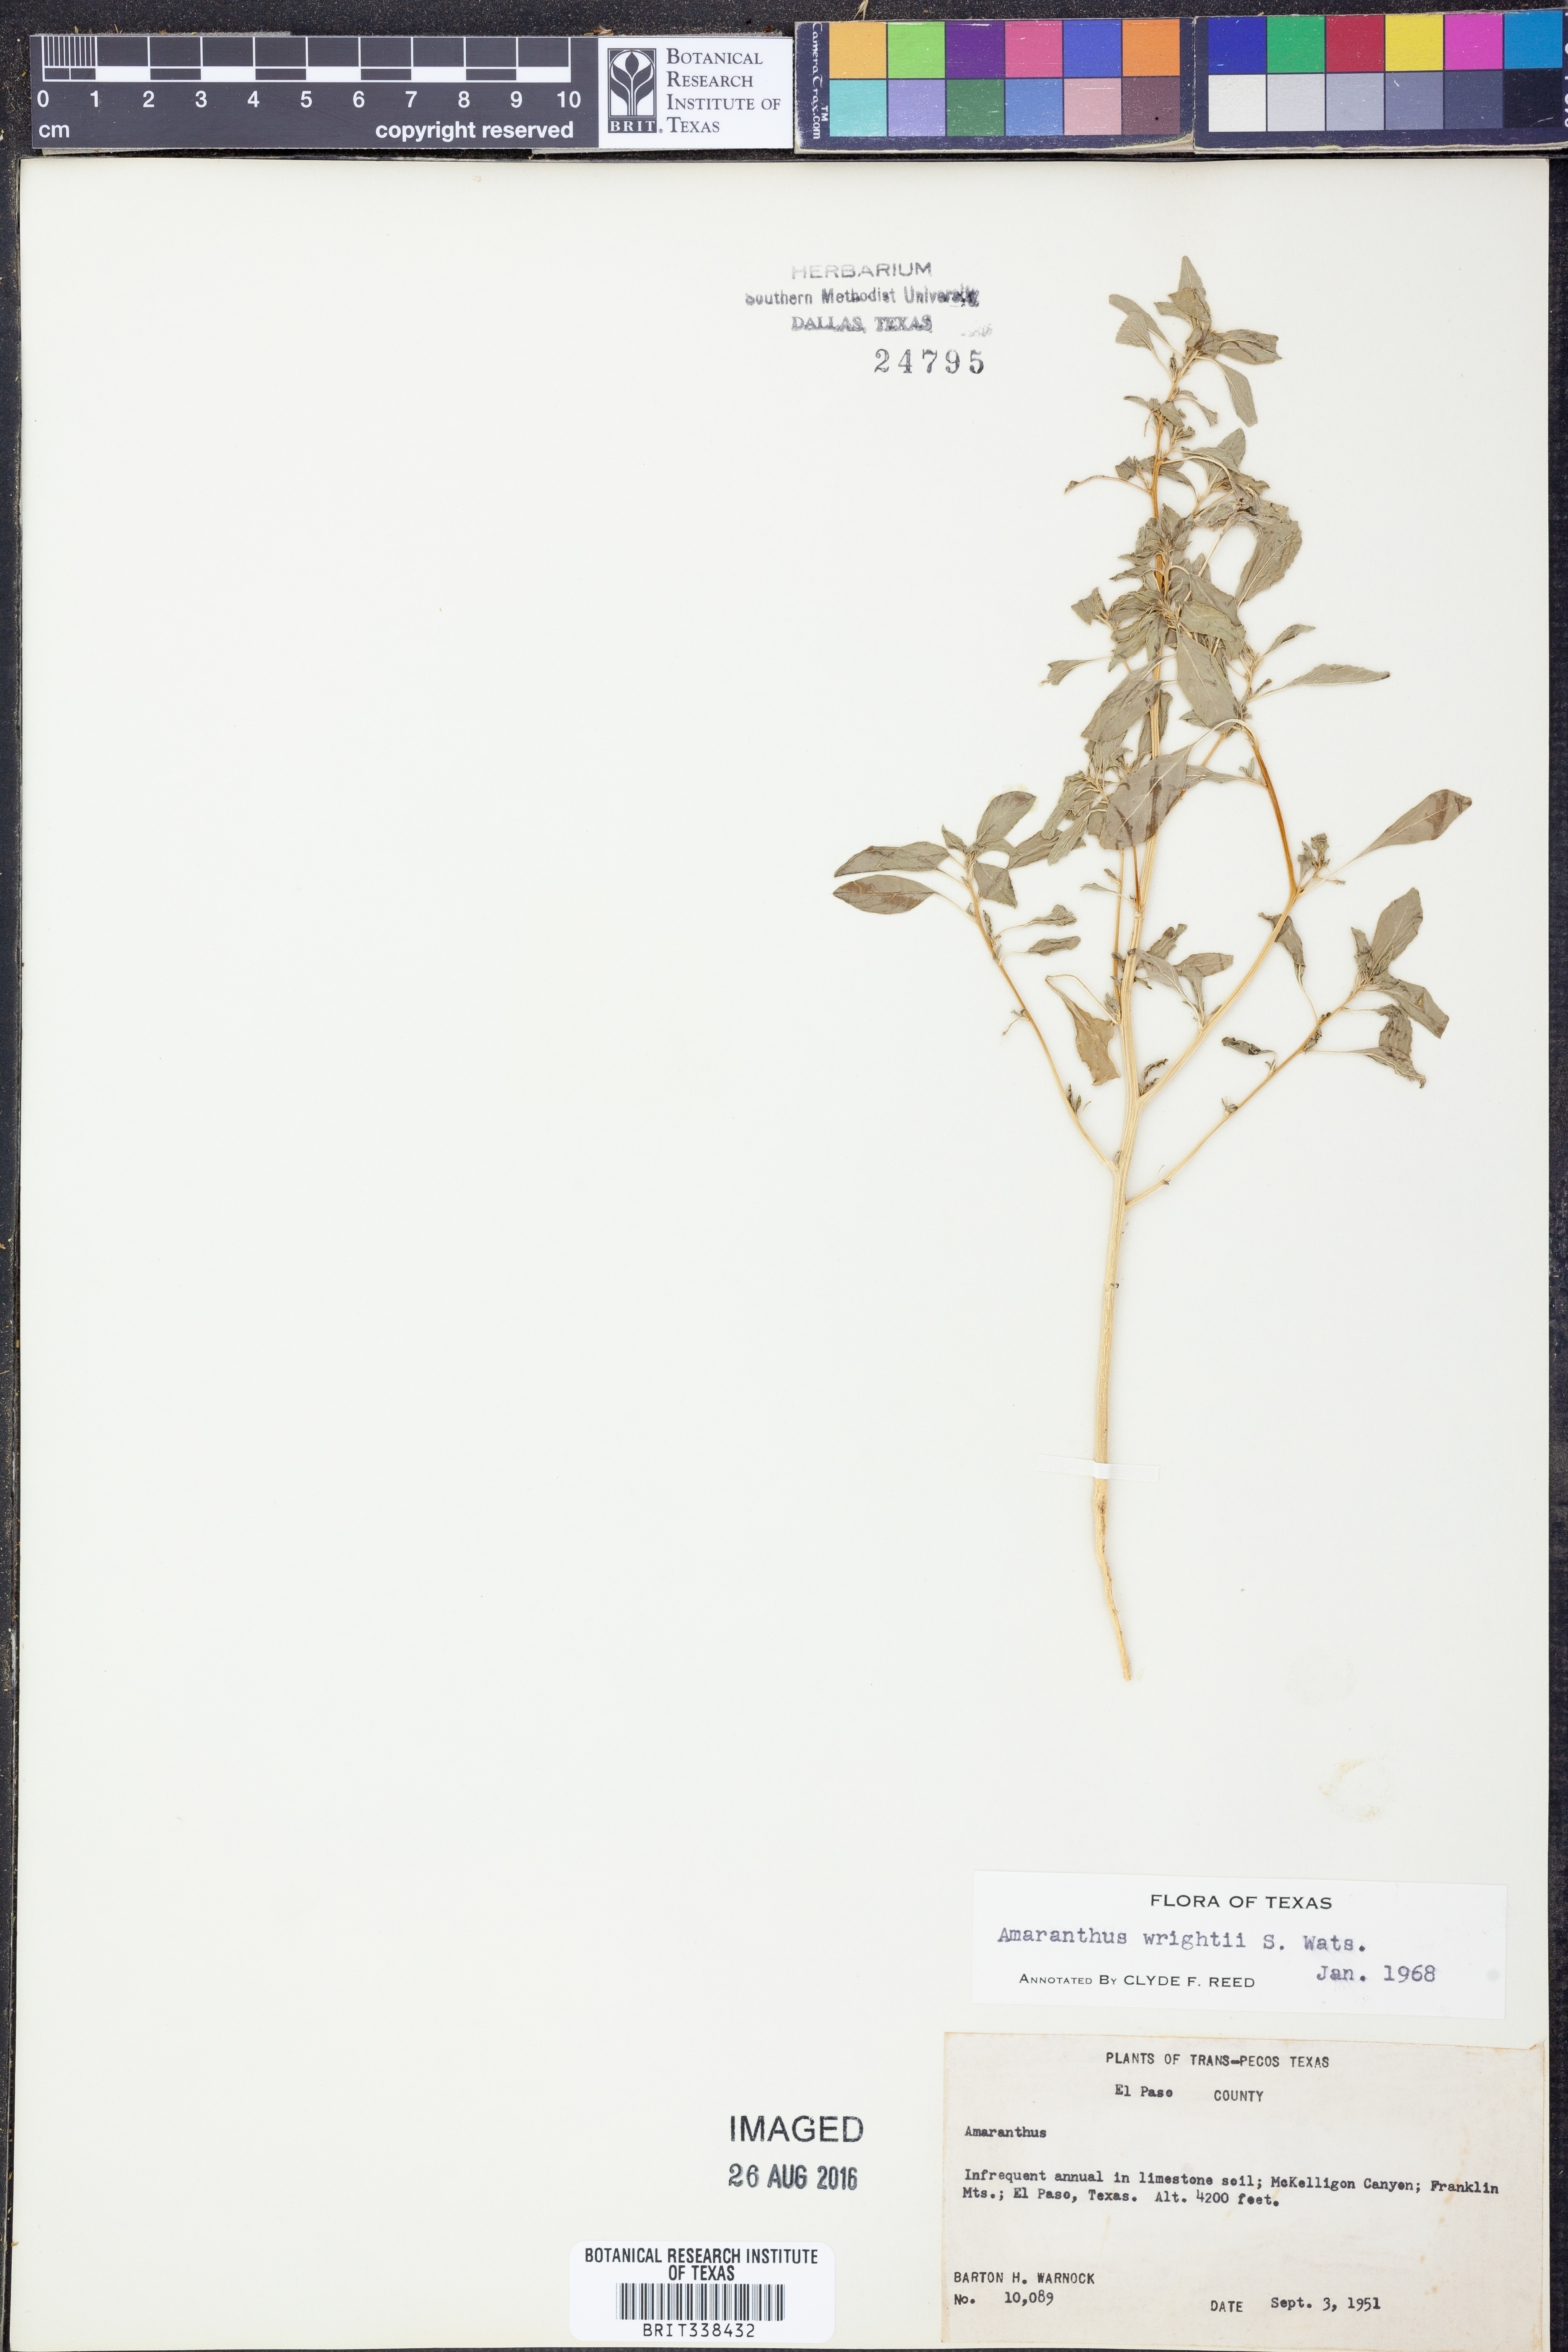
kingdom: Plantae
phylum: Tracheophyta
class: Magnoliopsida
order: Caryophyllales
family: Amaranthaceae
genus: Amaranthus
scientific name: Amaranthus wrightii
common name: Wright's amaranth
